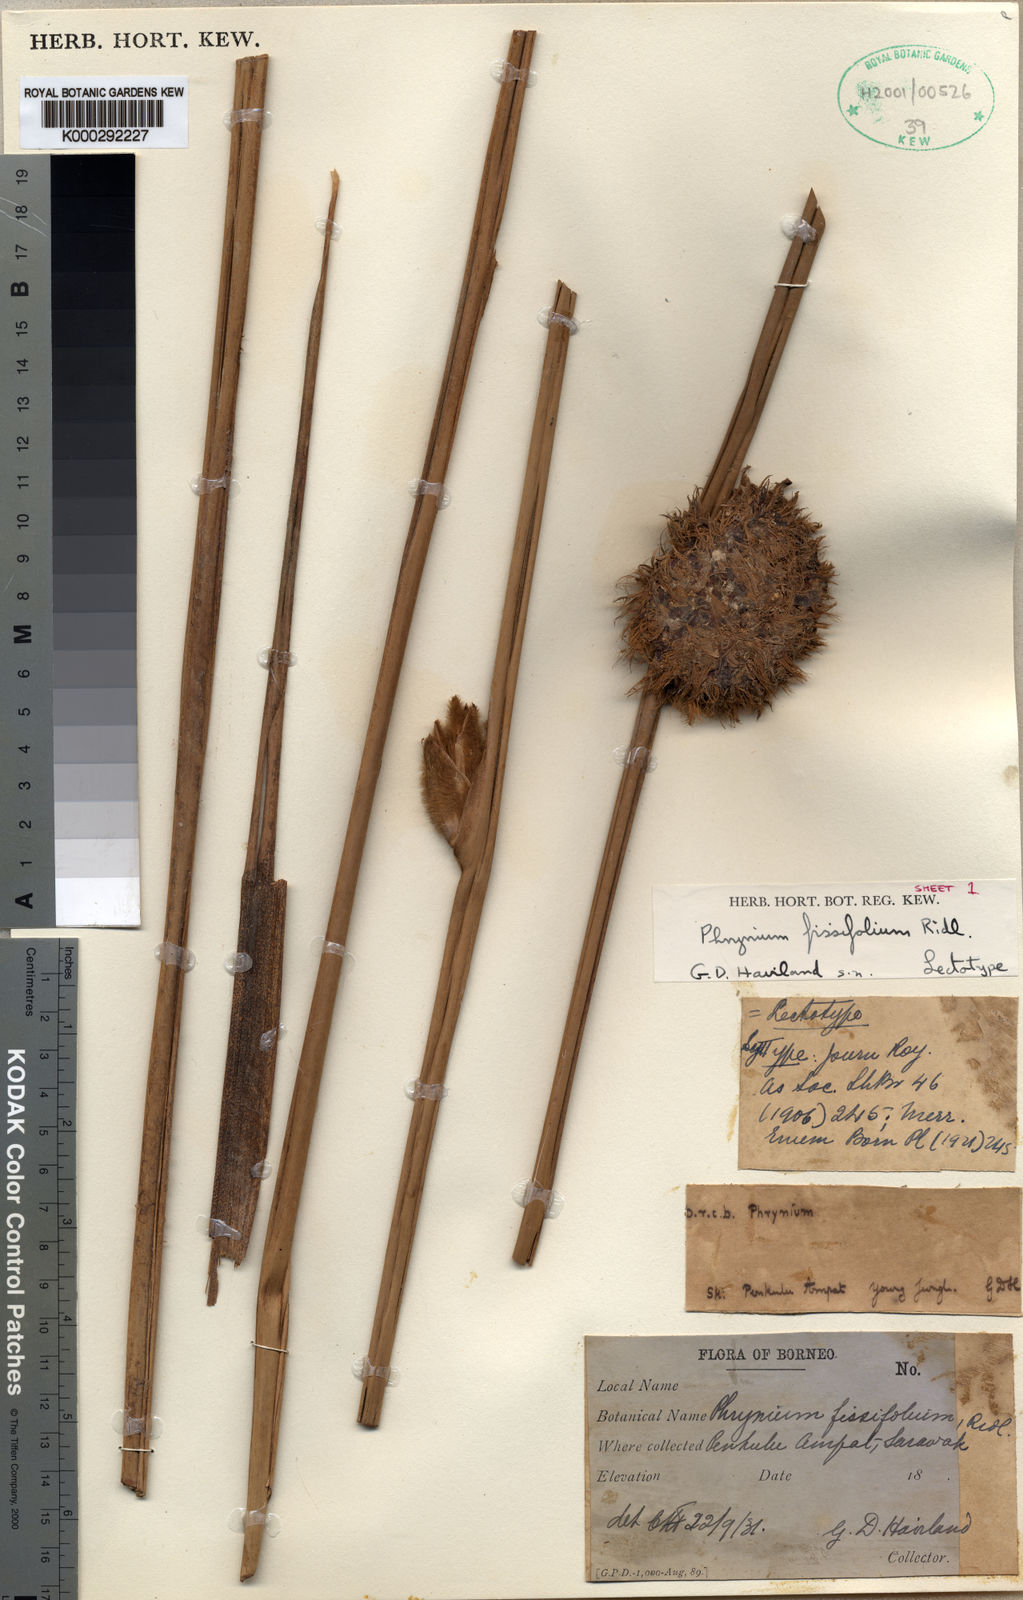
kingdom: Plantae
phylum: Tracheophyta
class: Liliopsida
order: Zingiberales
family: Marantaceae
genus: Phrynium
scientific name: Phrynium fissifolium
